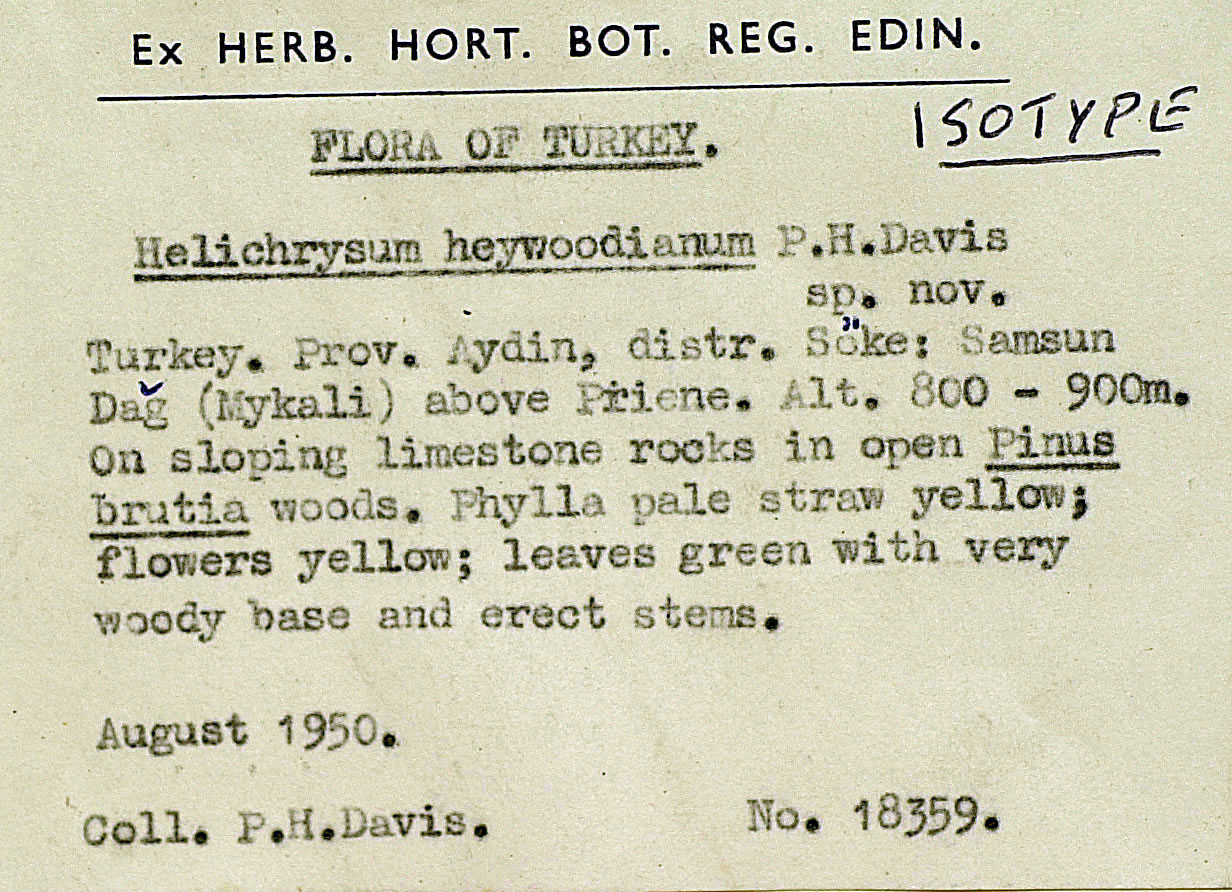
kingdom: Plantae
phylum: Tracheophyta
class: Magnoliopsida
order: Asterales
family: Asteraceae
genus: Helichrysum
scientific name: Helichrysum heywoodianum
